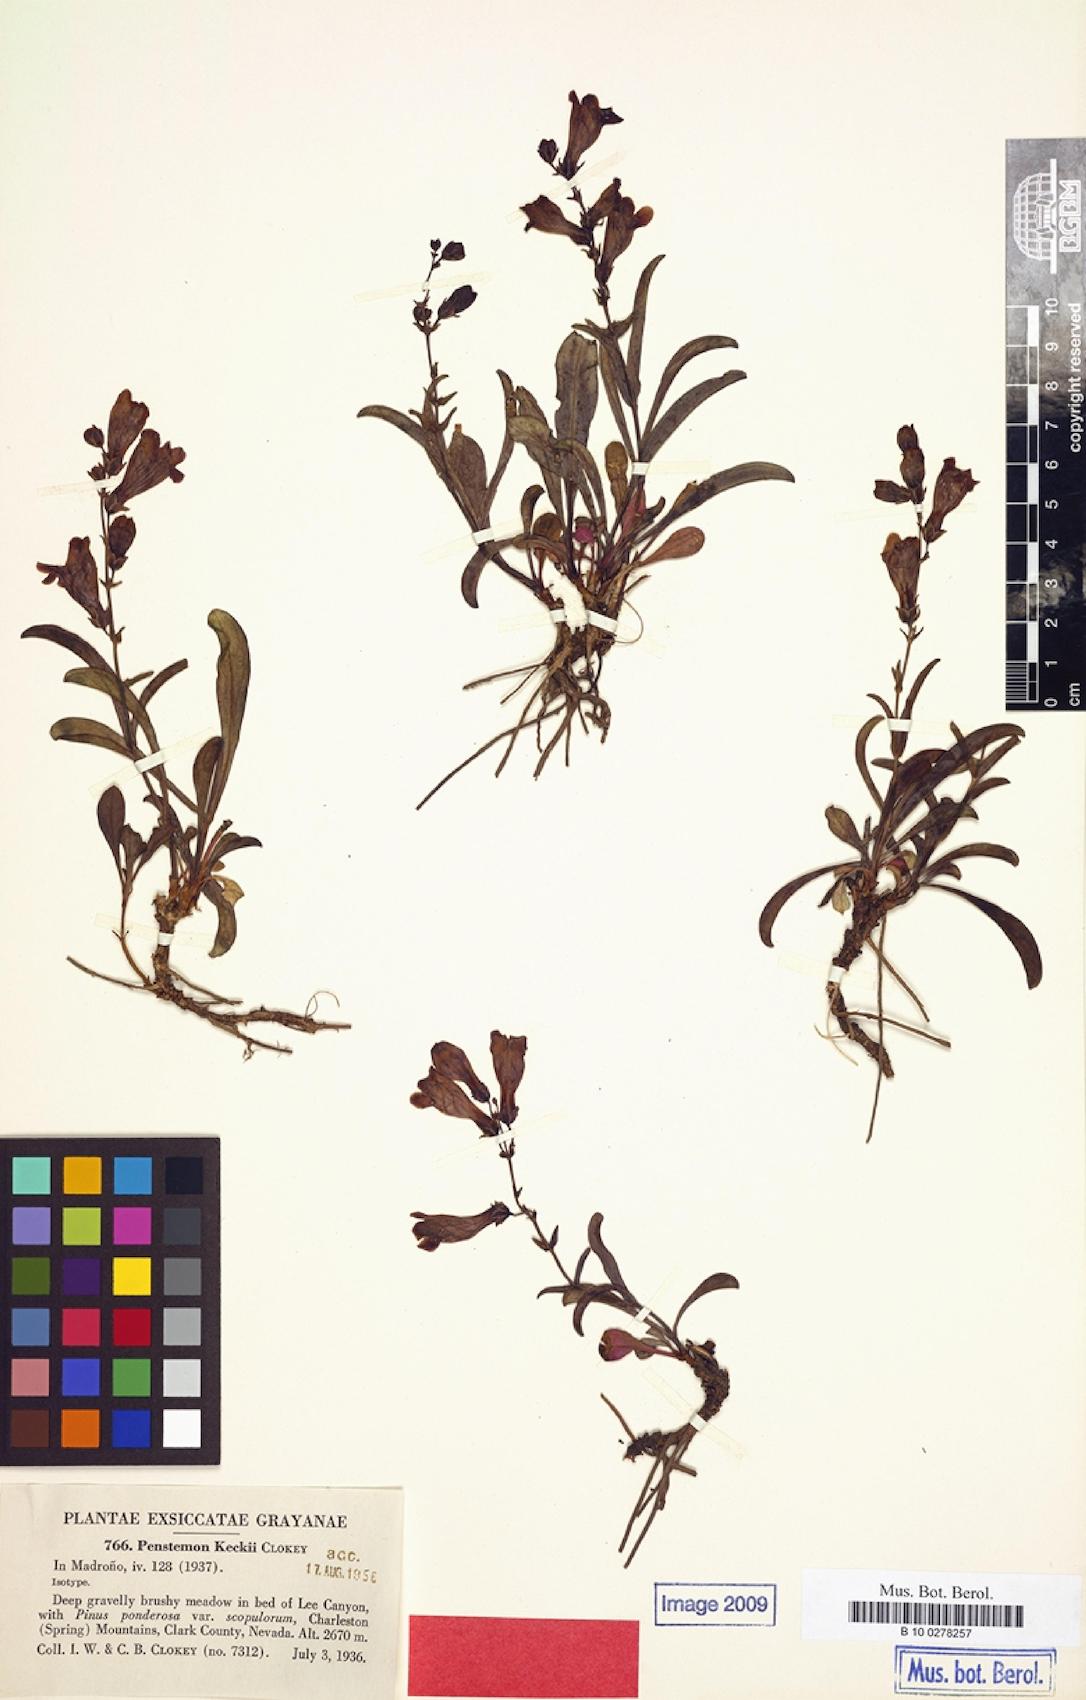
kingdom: Plantae
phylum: Tracheophyta
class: Magnoliopsida
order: Lamiales
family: Plantaginaceae
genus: Penstemon
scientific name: Penstemon leiophyllus
